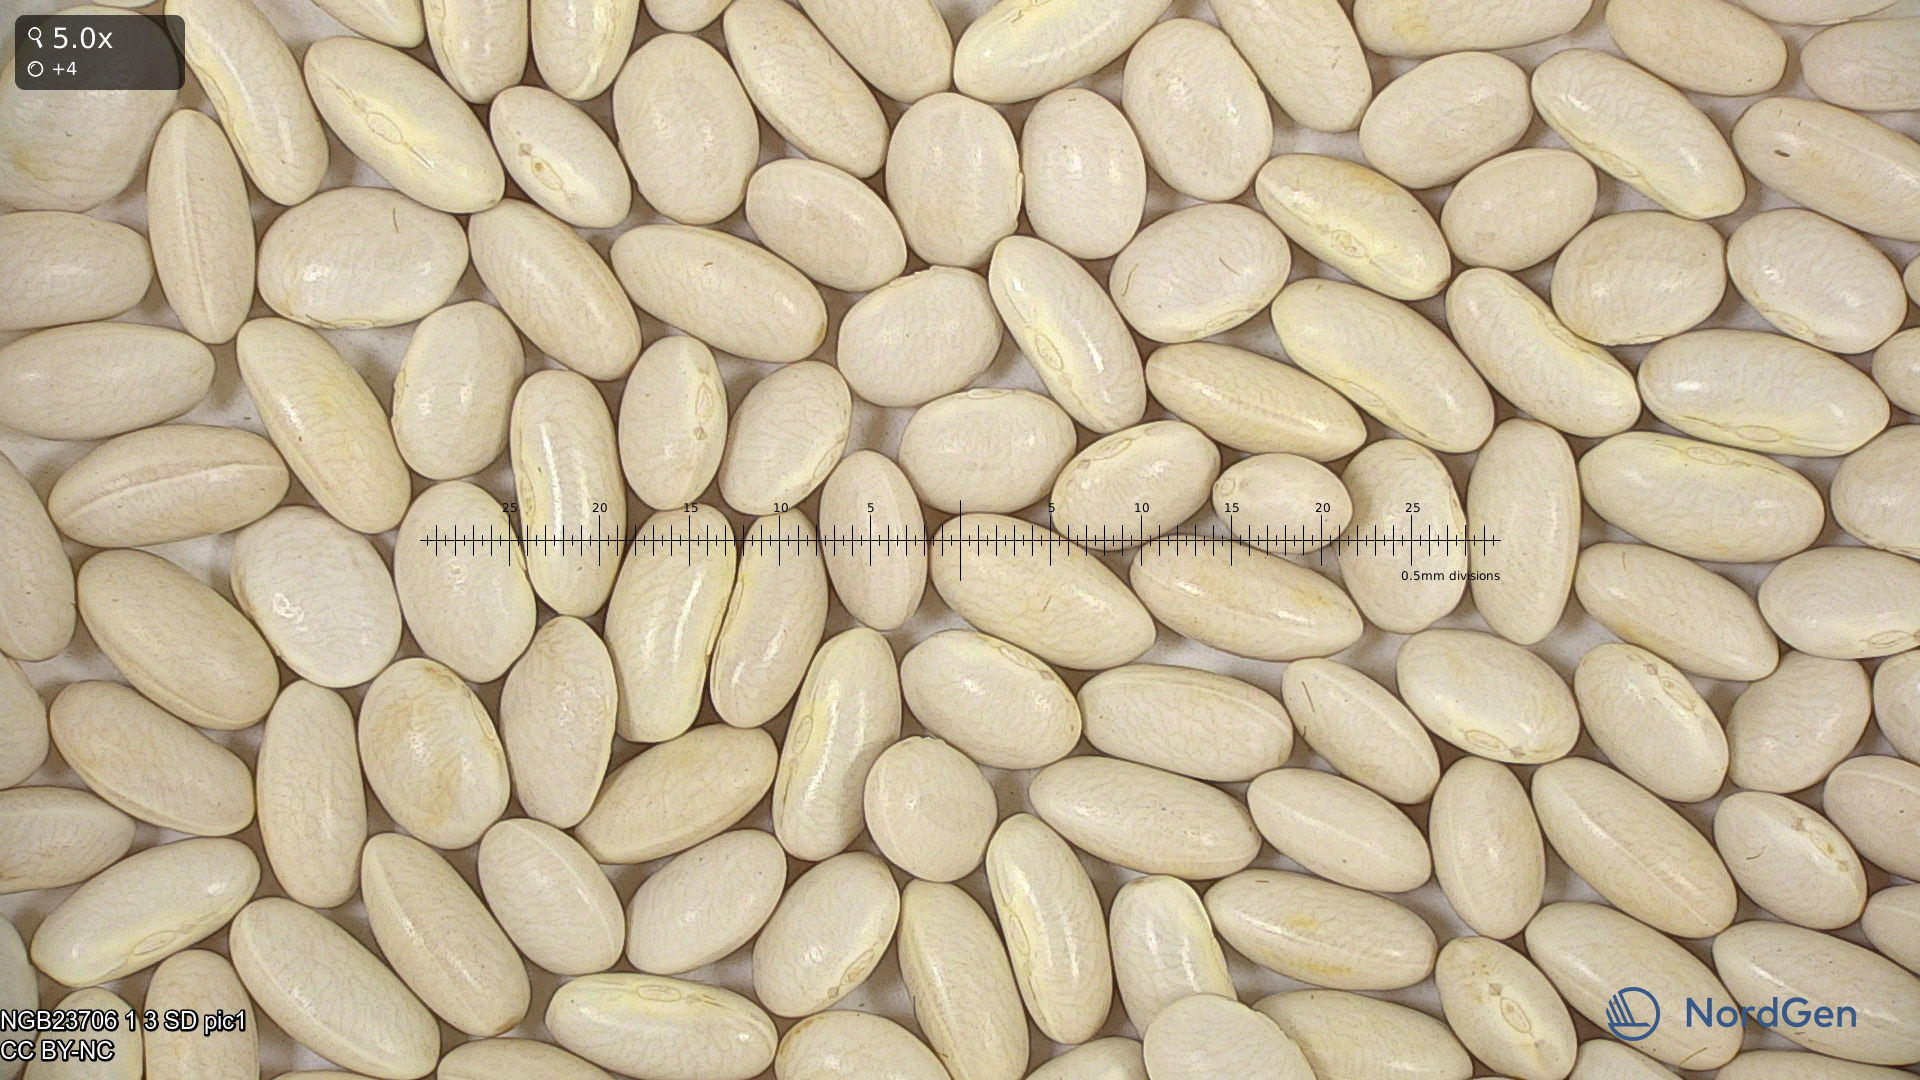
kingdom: Plantae
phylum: Tracheophyta
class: Magnoliopsida
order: Fabales
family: Fabaceae
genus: Phaseolus
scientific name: Phaseolus vulgaris
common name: Bean
